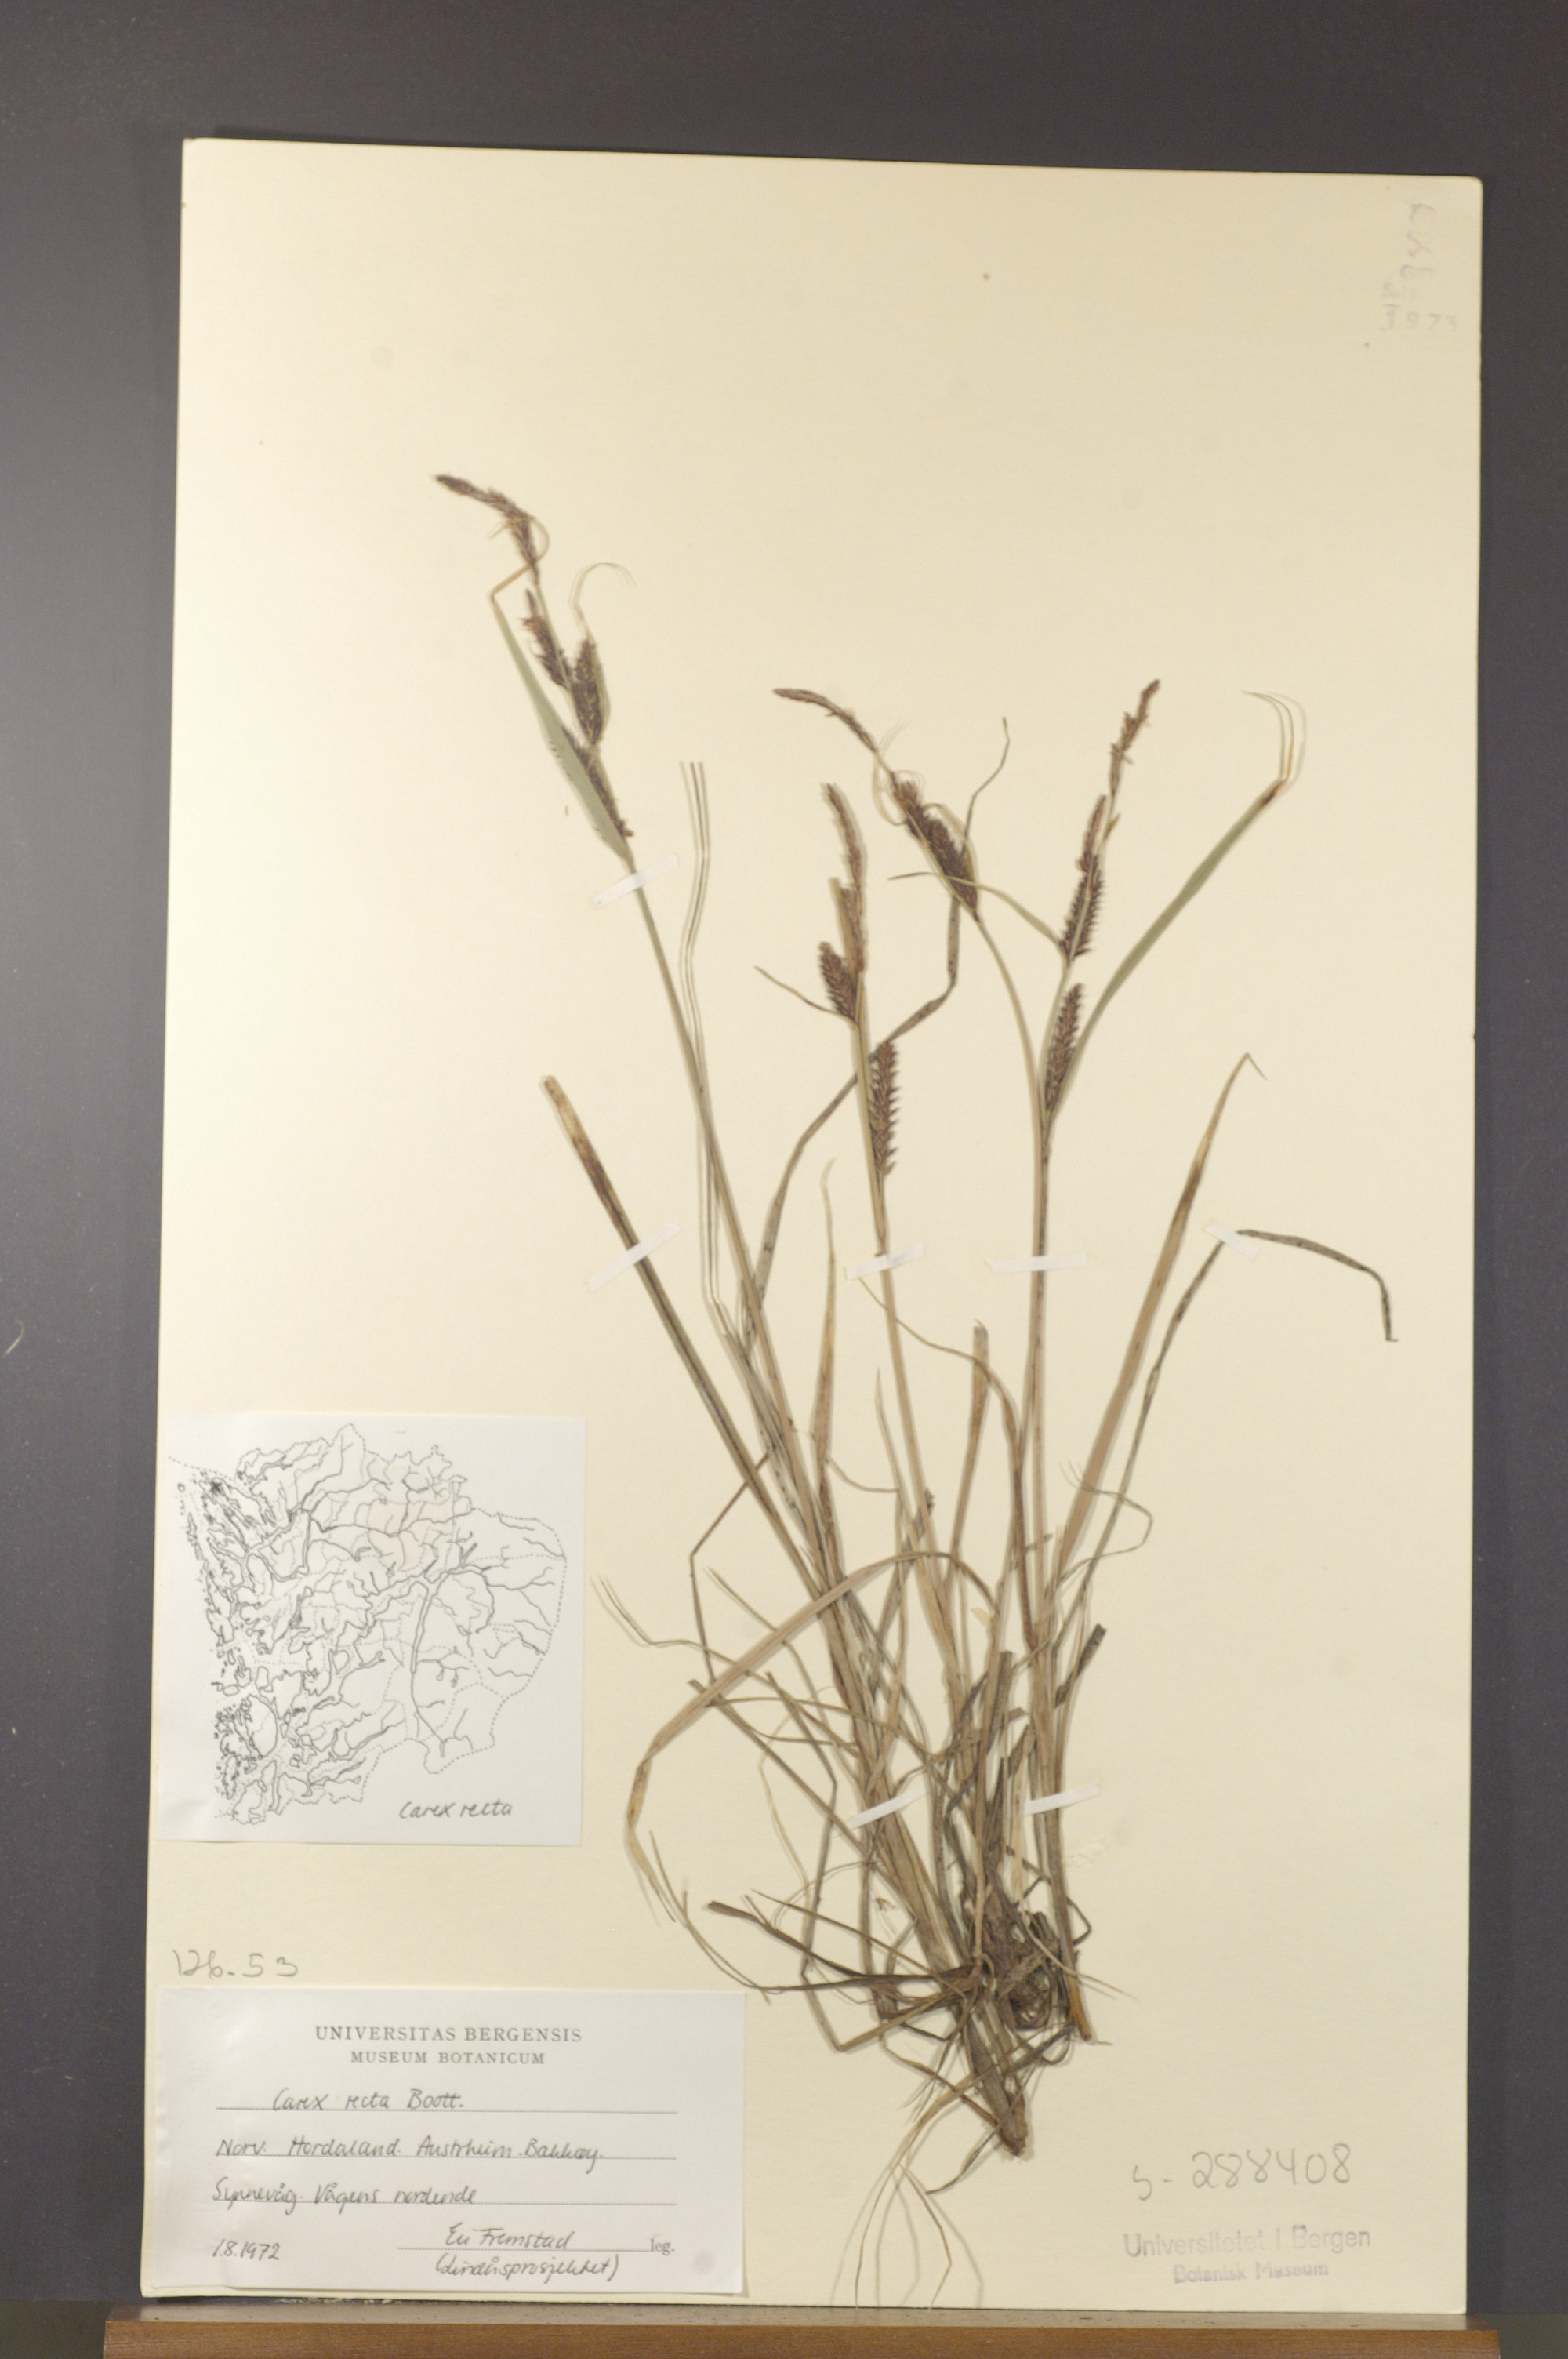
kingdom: Plantae
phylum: Tracheophyta
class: Liliopsida
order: Poales
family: Cyperaceae
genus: Carex
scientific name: Carex recta
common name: Estuarine sedge
